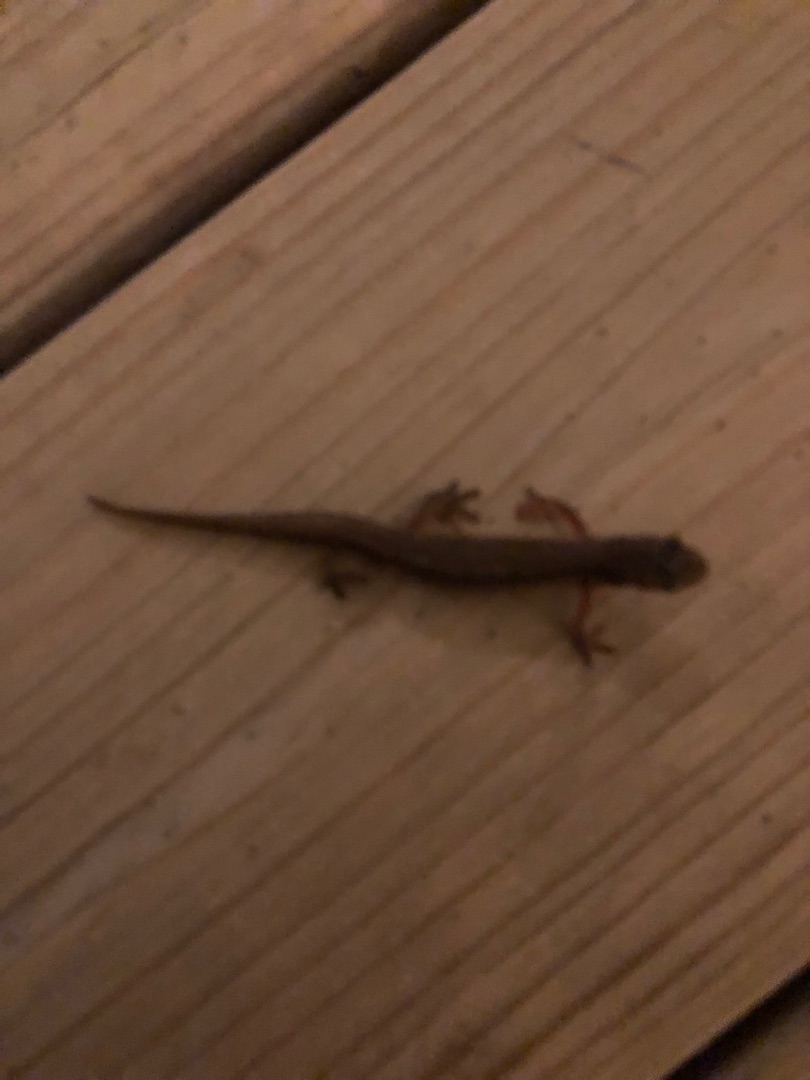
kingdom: Animalia
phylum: Chordata
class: Amphibia
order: Caudata
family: Salamandridae
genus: Lissotriton
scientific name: Lissotriton vulgaris
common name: Lille vandsalamander
